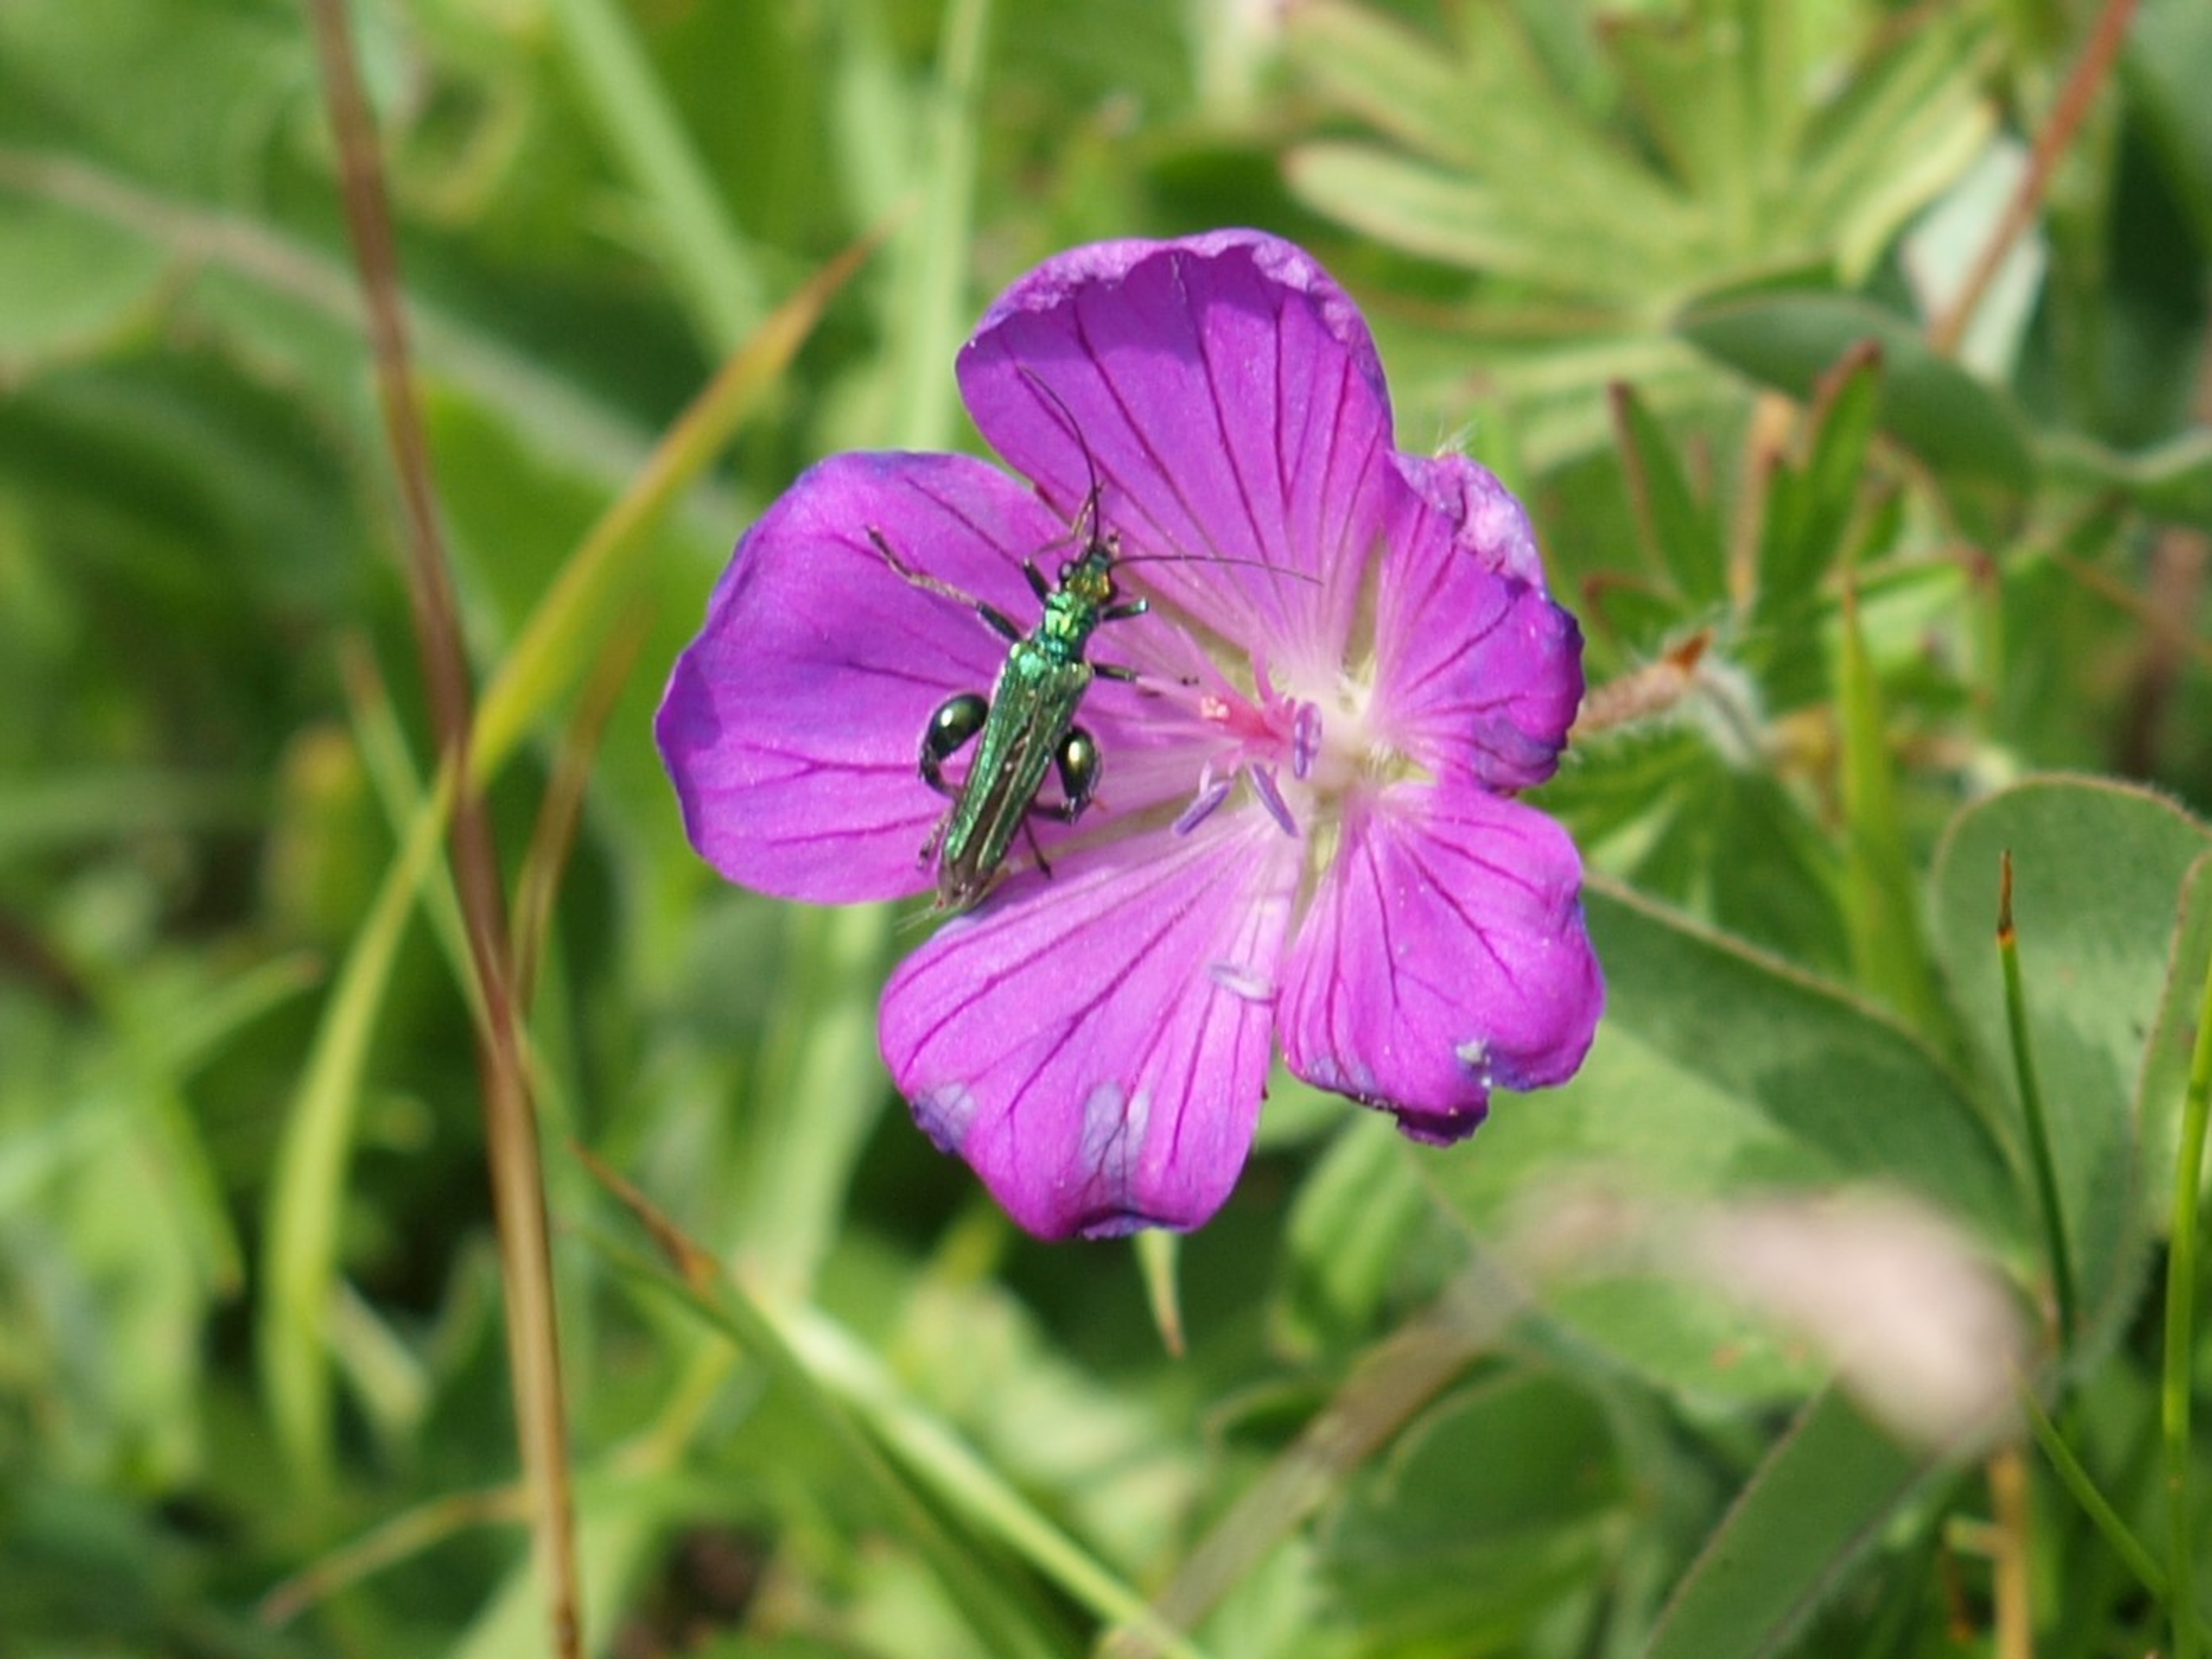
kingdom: Animalia
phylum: Arthropoda
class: Insecta
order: Coleoptera
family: Oedemeridae
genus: Oedemera
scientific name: Oedemera nobilis
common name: Tyklårssolbille
